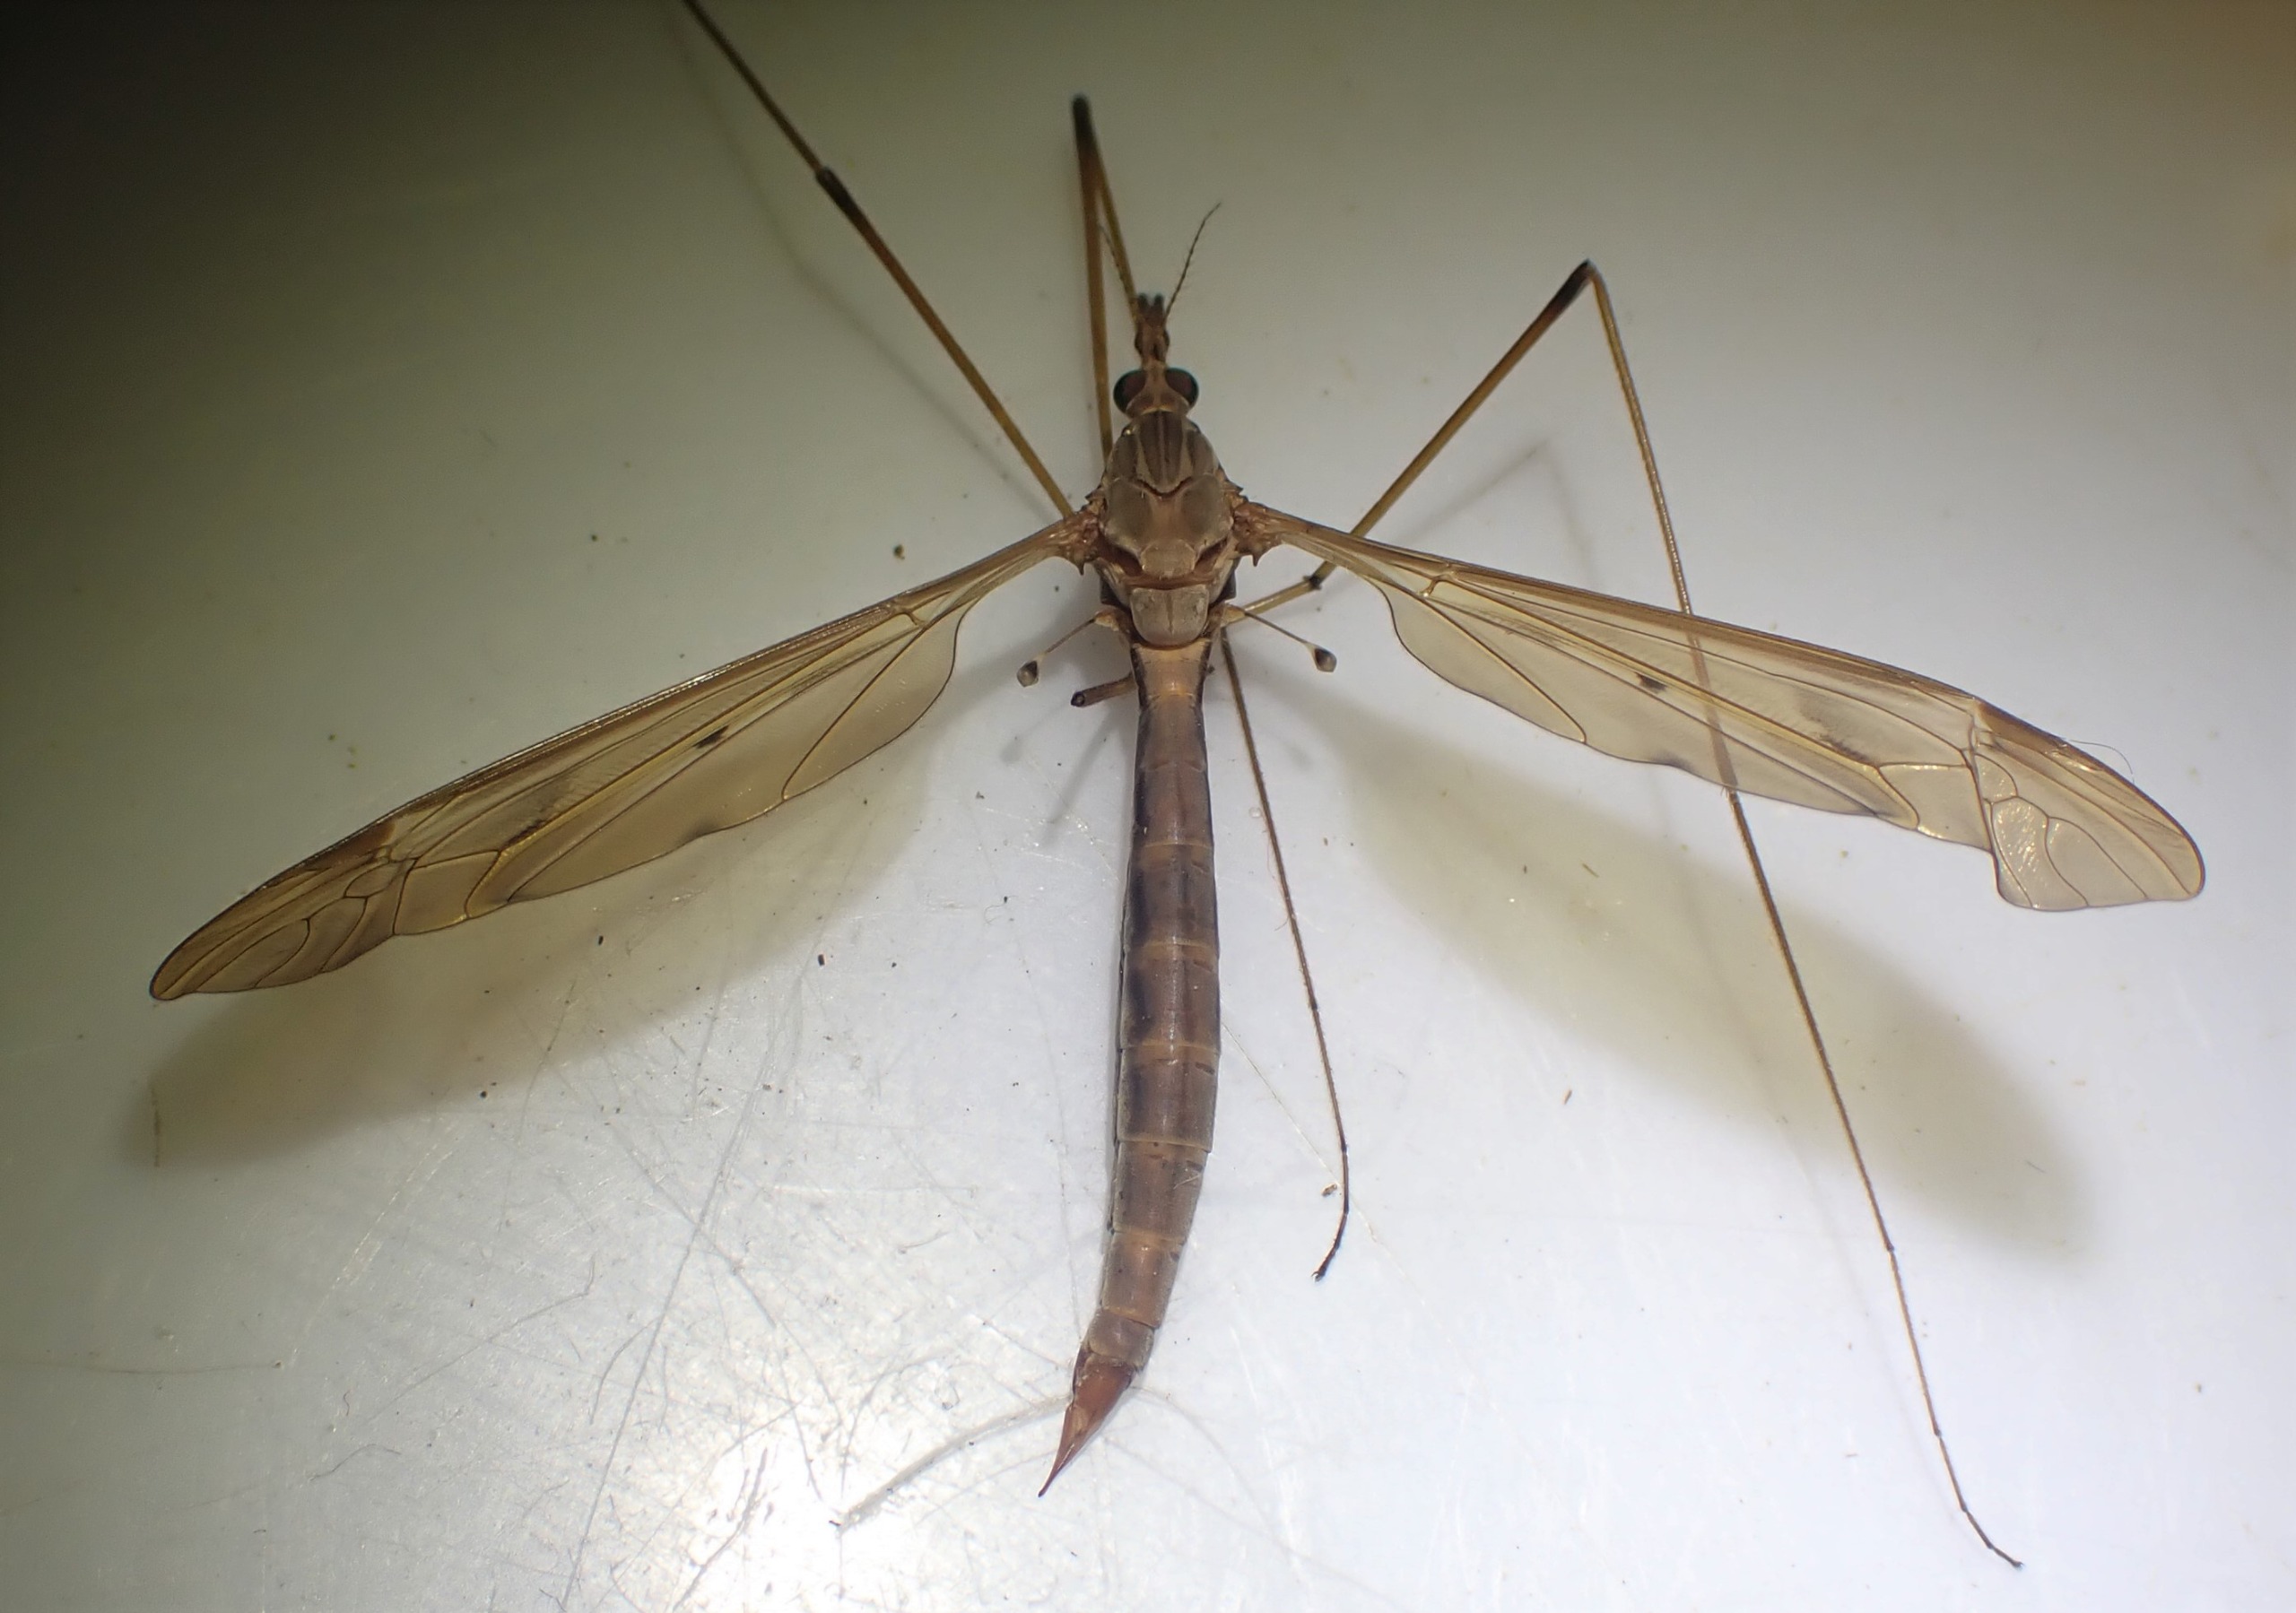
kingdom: Animalia
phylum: Arthropoda
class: Insecta
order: Diptera
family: Tipulidae
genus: Tipula
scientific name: Tipula fulvipennis
